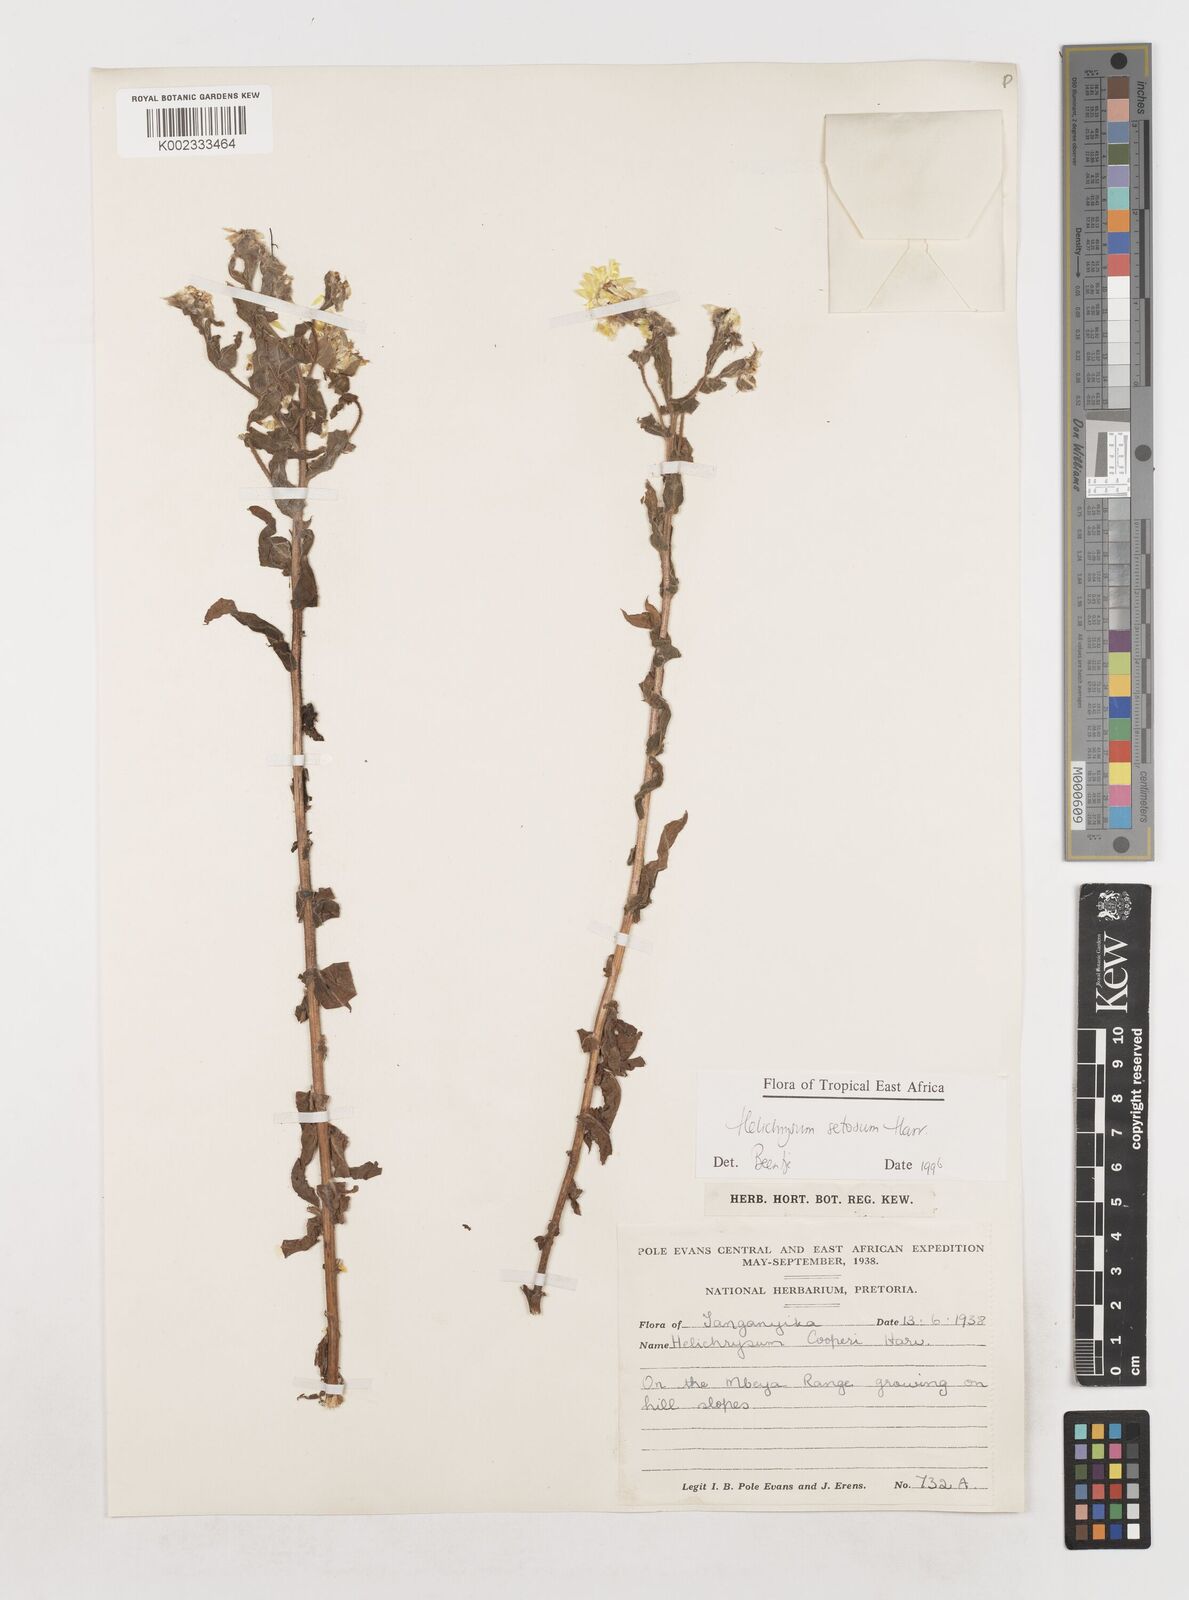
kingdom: Plantae
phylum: Tracheophyta
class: Magnoliopsida
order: Asterales
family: Asteraceae
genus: Helichrysum
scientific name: Helichrysum setosum
